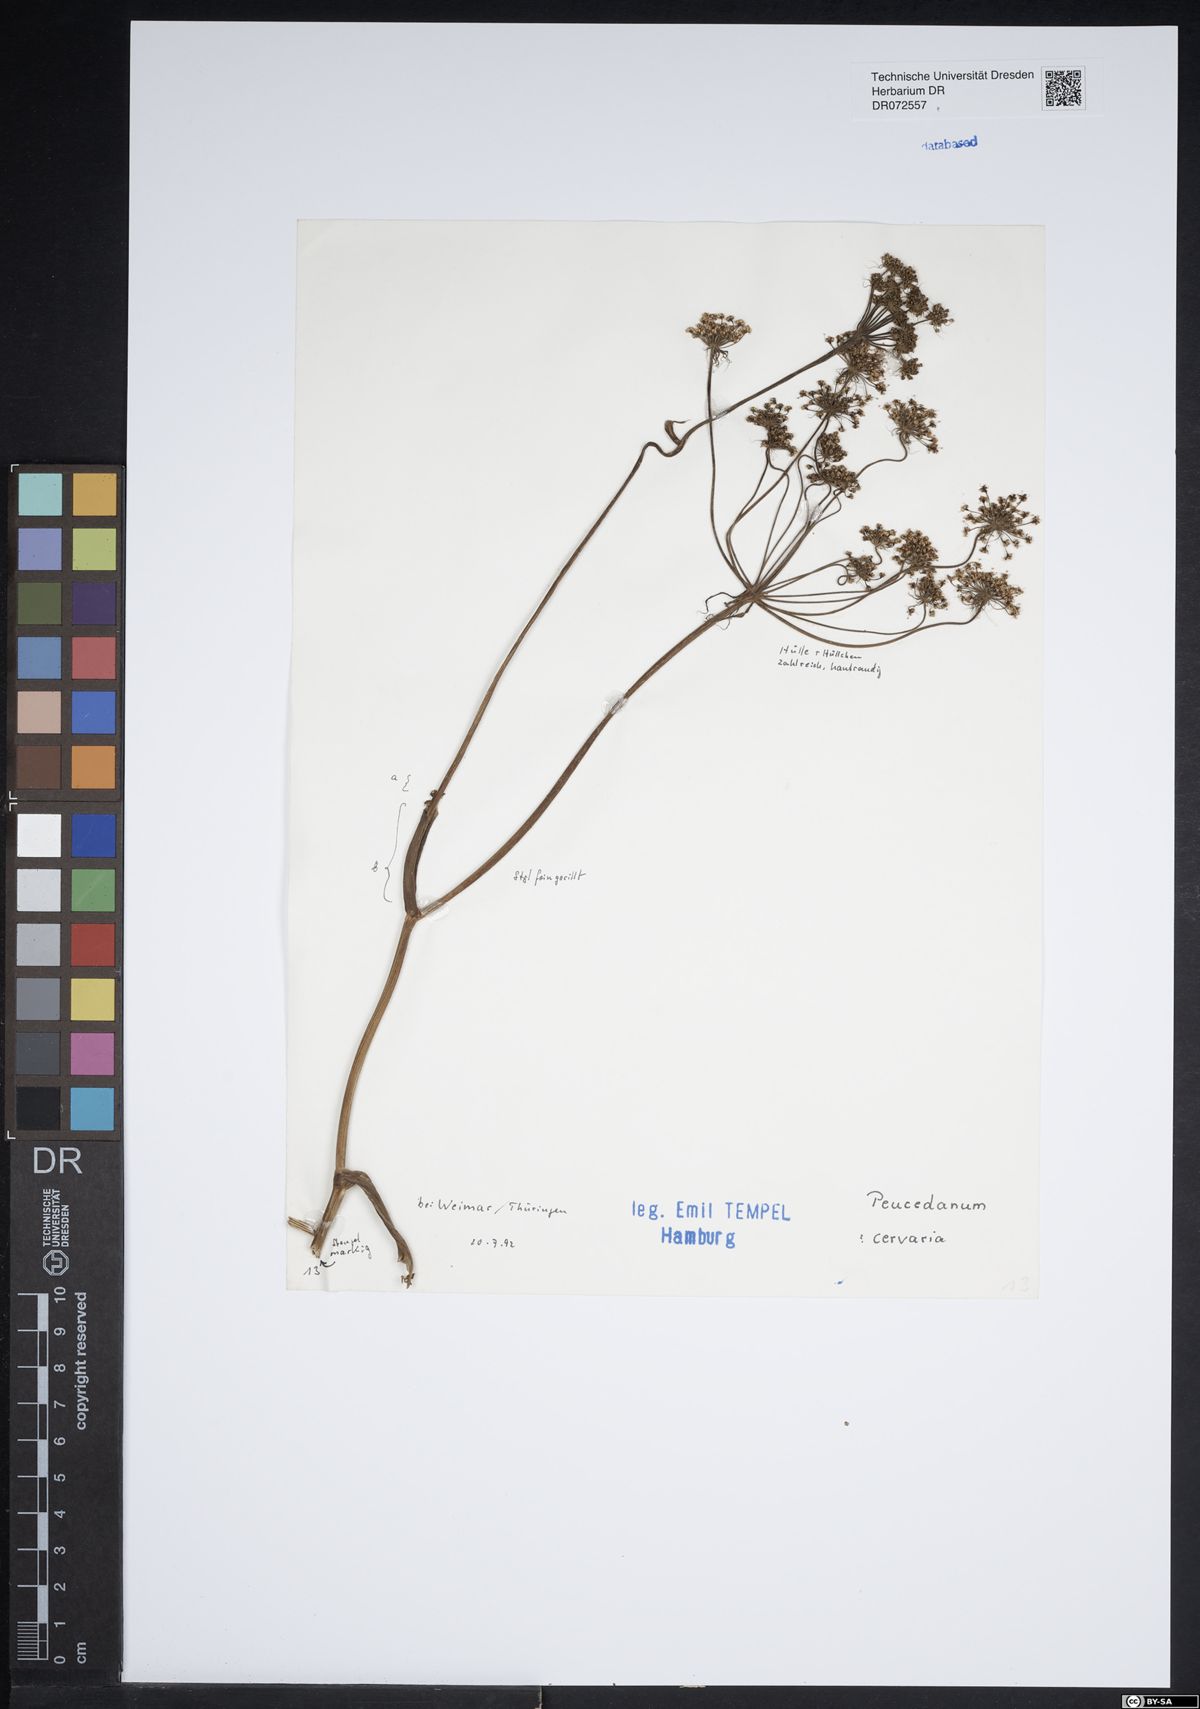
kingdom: Plantae
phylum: Tracheophyta
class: Magnoliopsida
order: Apiales
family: Apiaceae
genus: Cervaria
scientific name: Cervaria rivini
